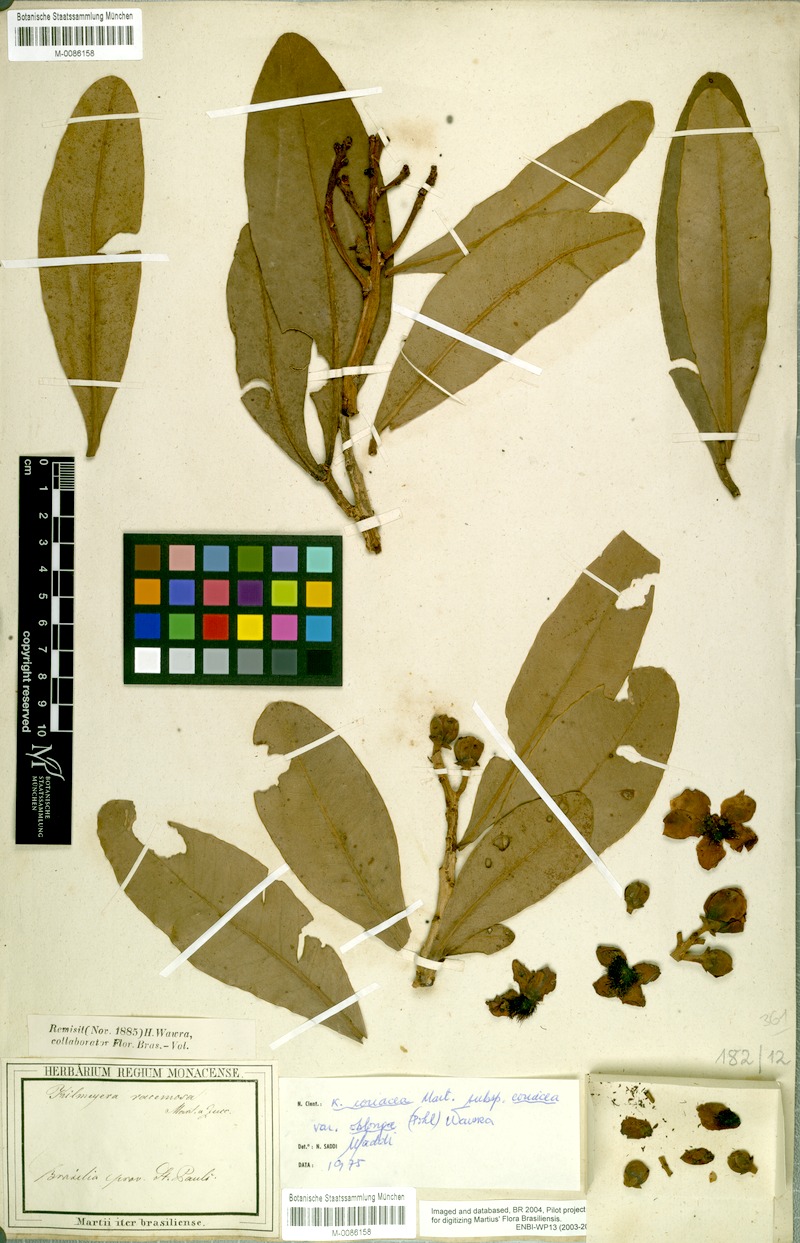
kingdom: Plantae
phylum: Tracheophyta
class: Magnoliopsida
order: Malpighiales
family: Calophyllaceae
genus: Kielmeyera
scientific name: Kielmeyera coriacea
